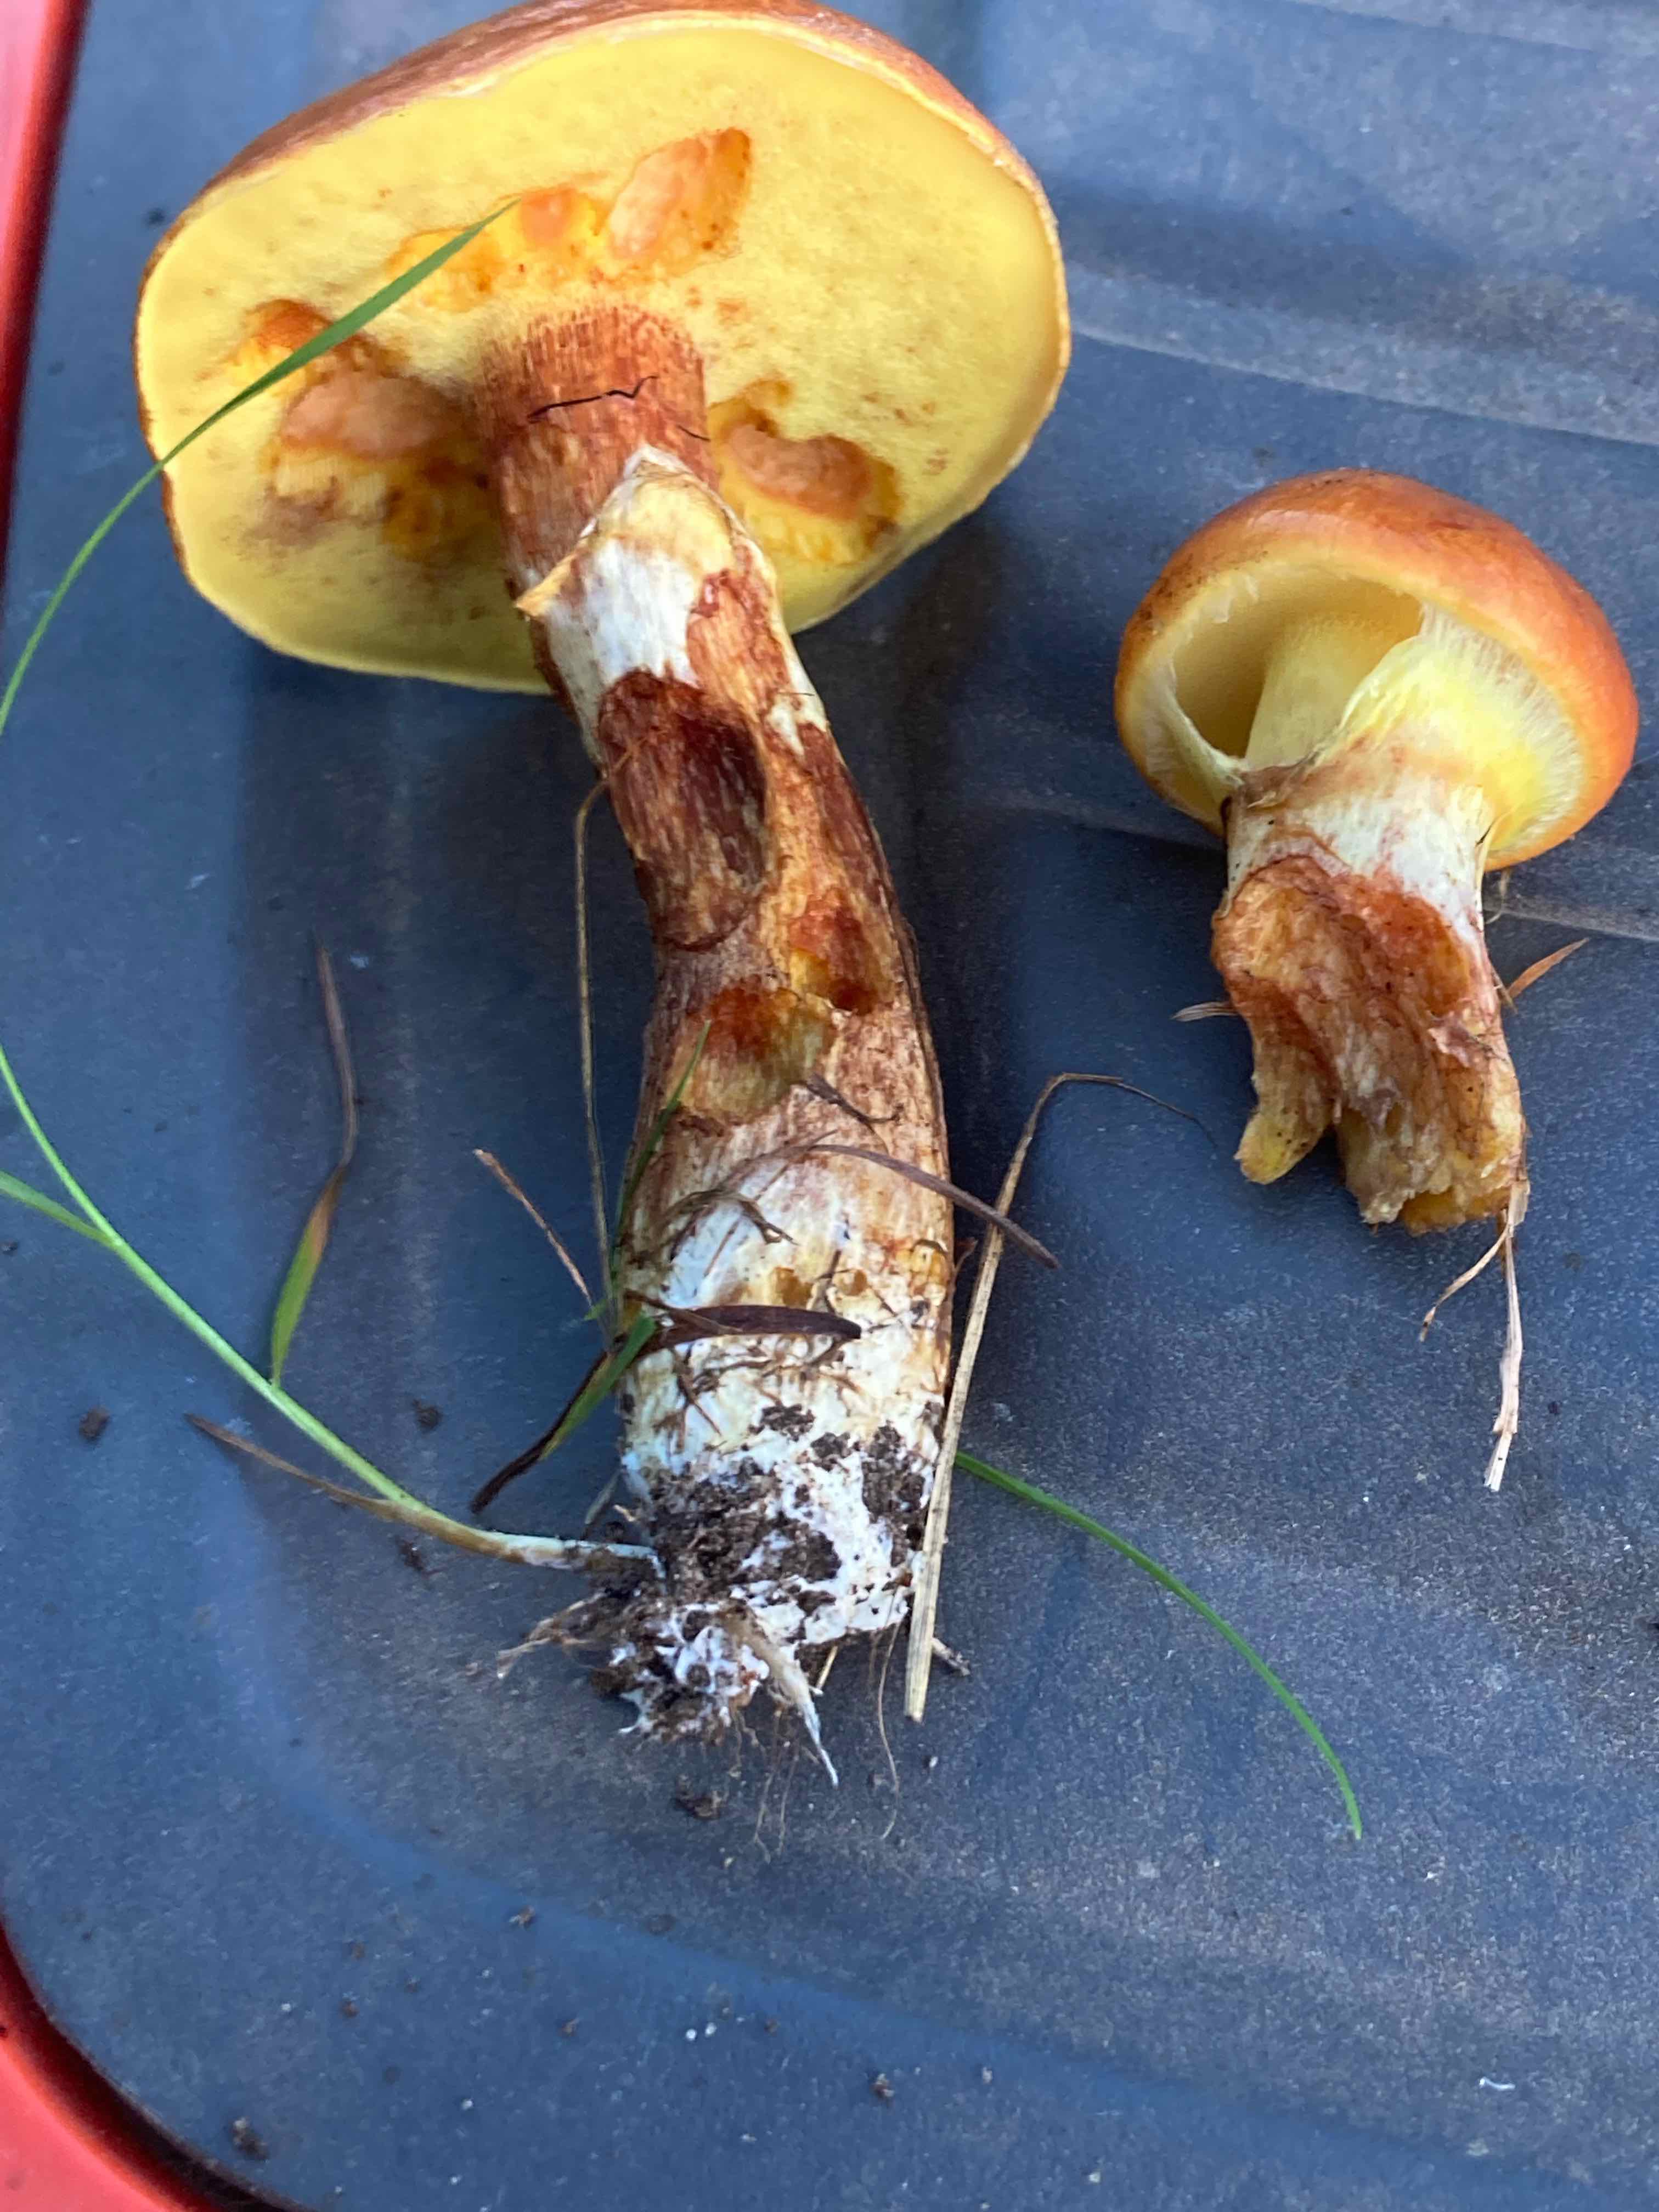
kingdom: Fungi
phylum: Basidiomycota
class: Agaricomycetes
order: Boletales
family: Suillaceae
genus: Suillus
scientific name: Suillus grevillei
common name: lærke-slimrørhat
